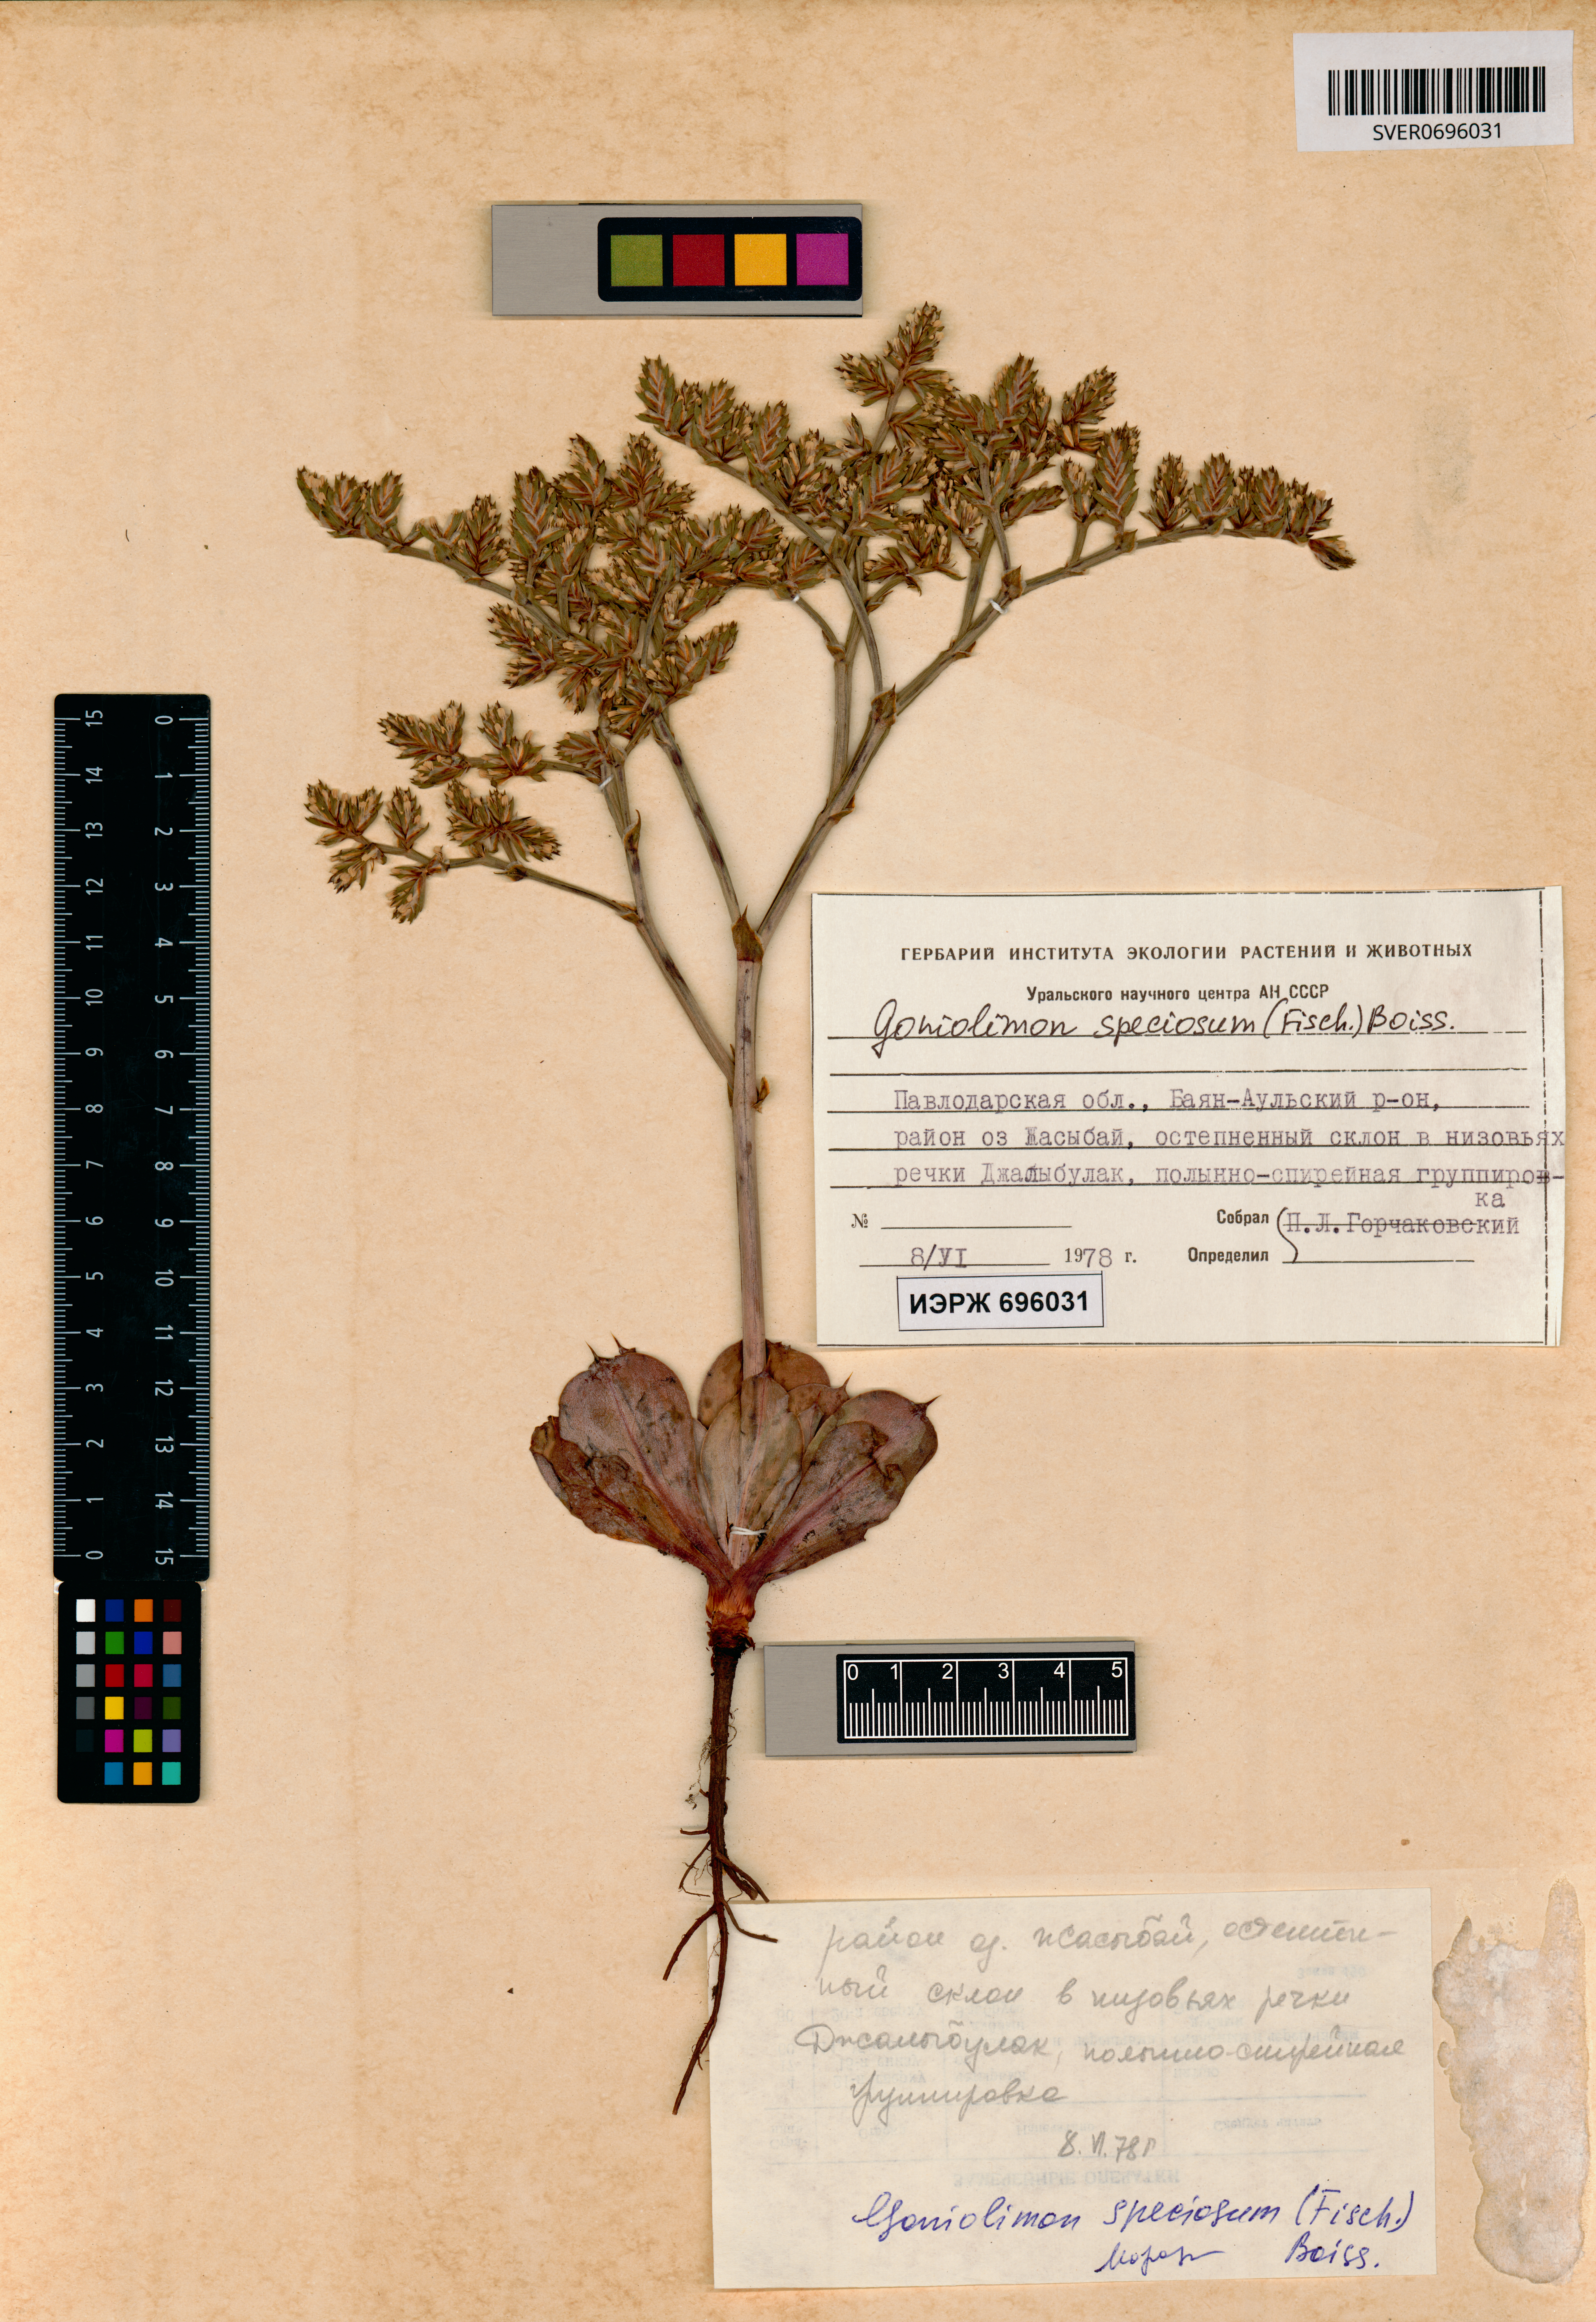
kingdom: Plantae
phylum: Tracheophyta
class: Magnoliopsida
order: Caryophyllales
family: Plumbaginaceae
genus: Goniolimon
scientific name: Goniolimon speciosum
